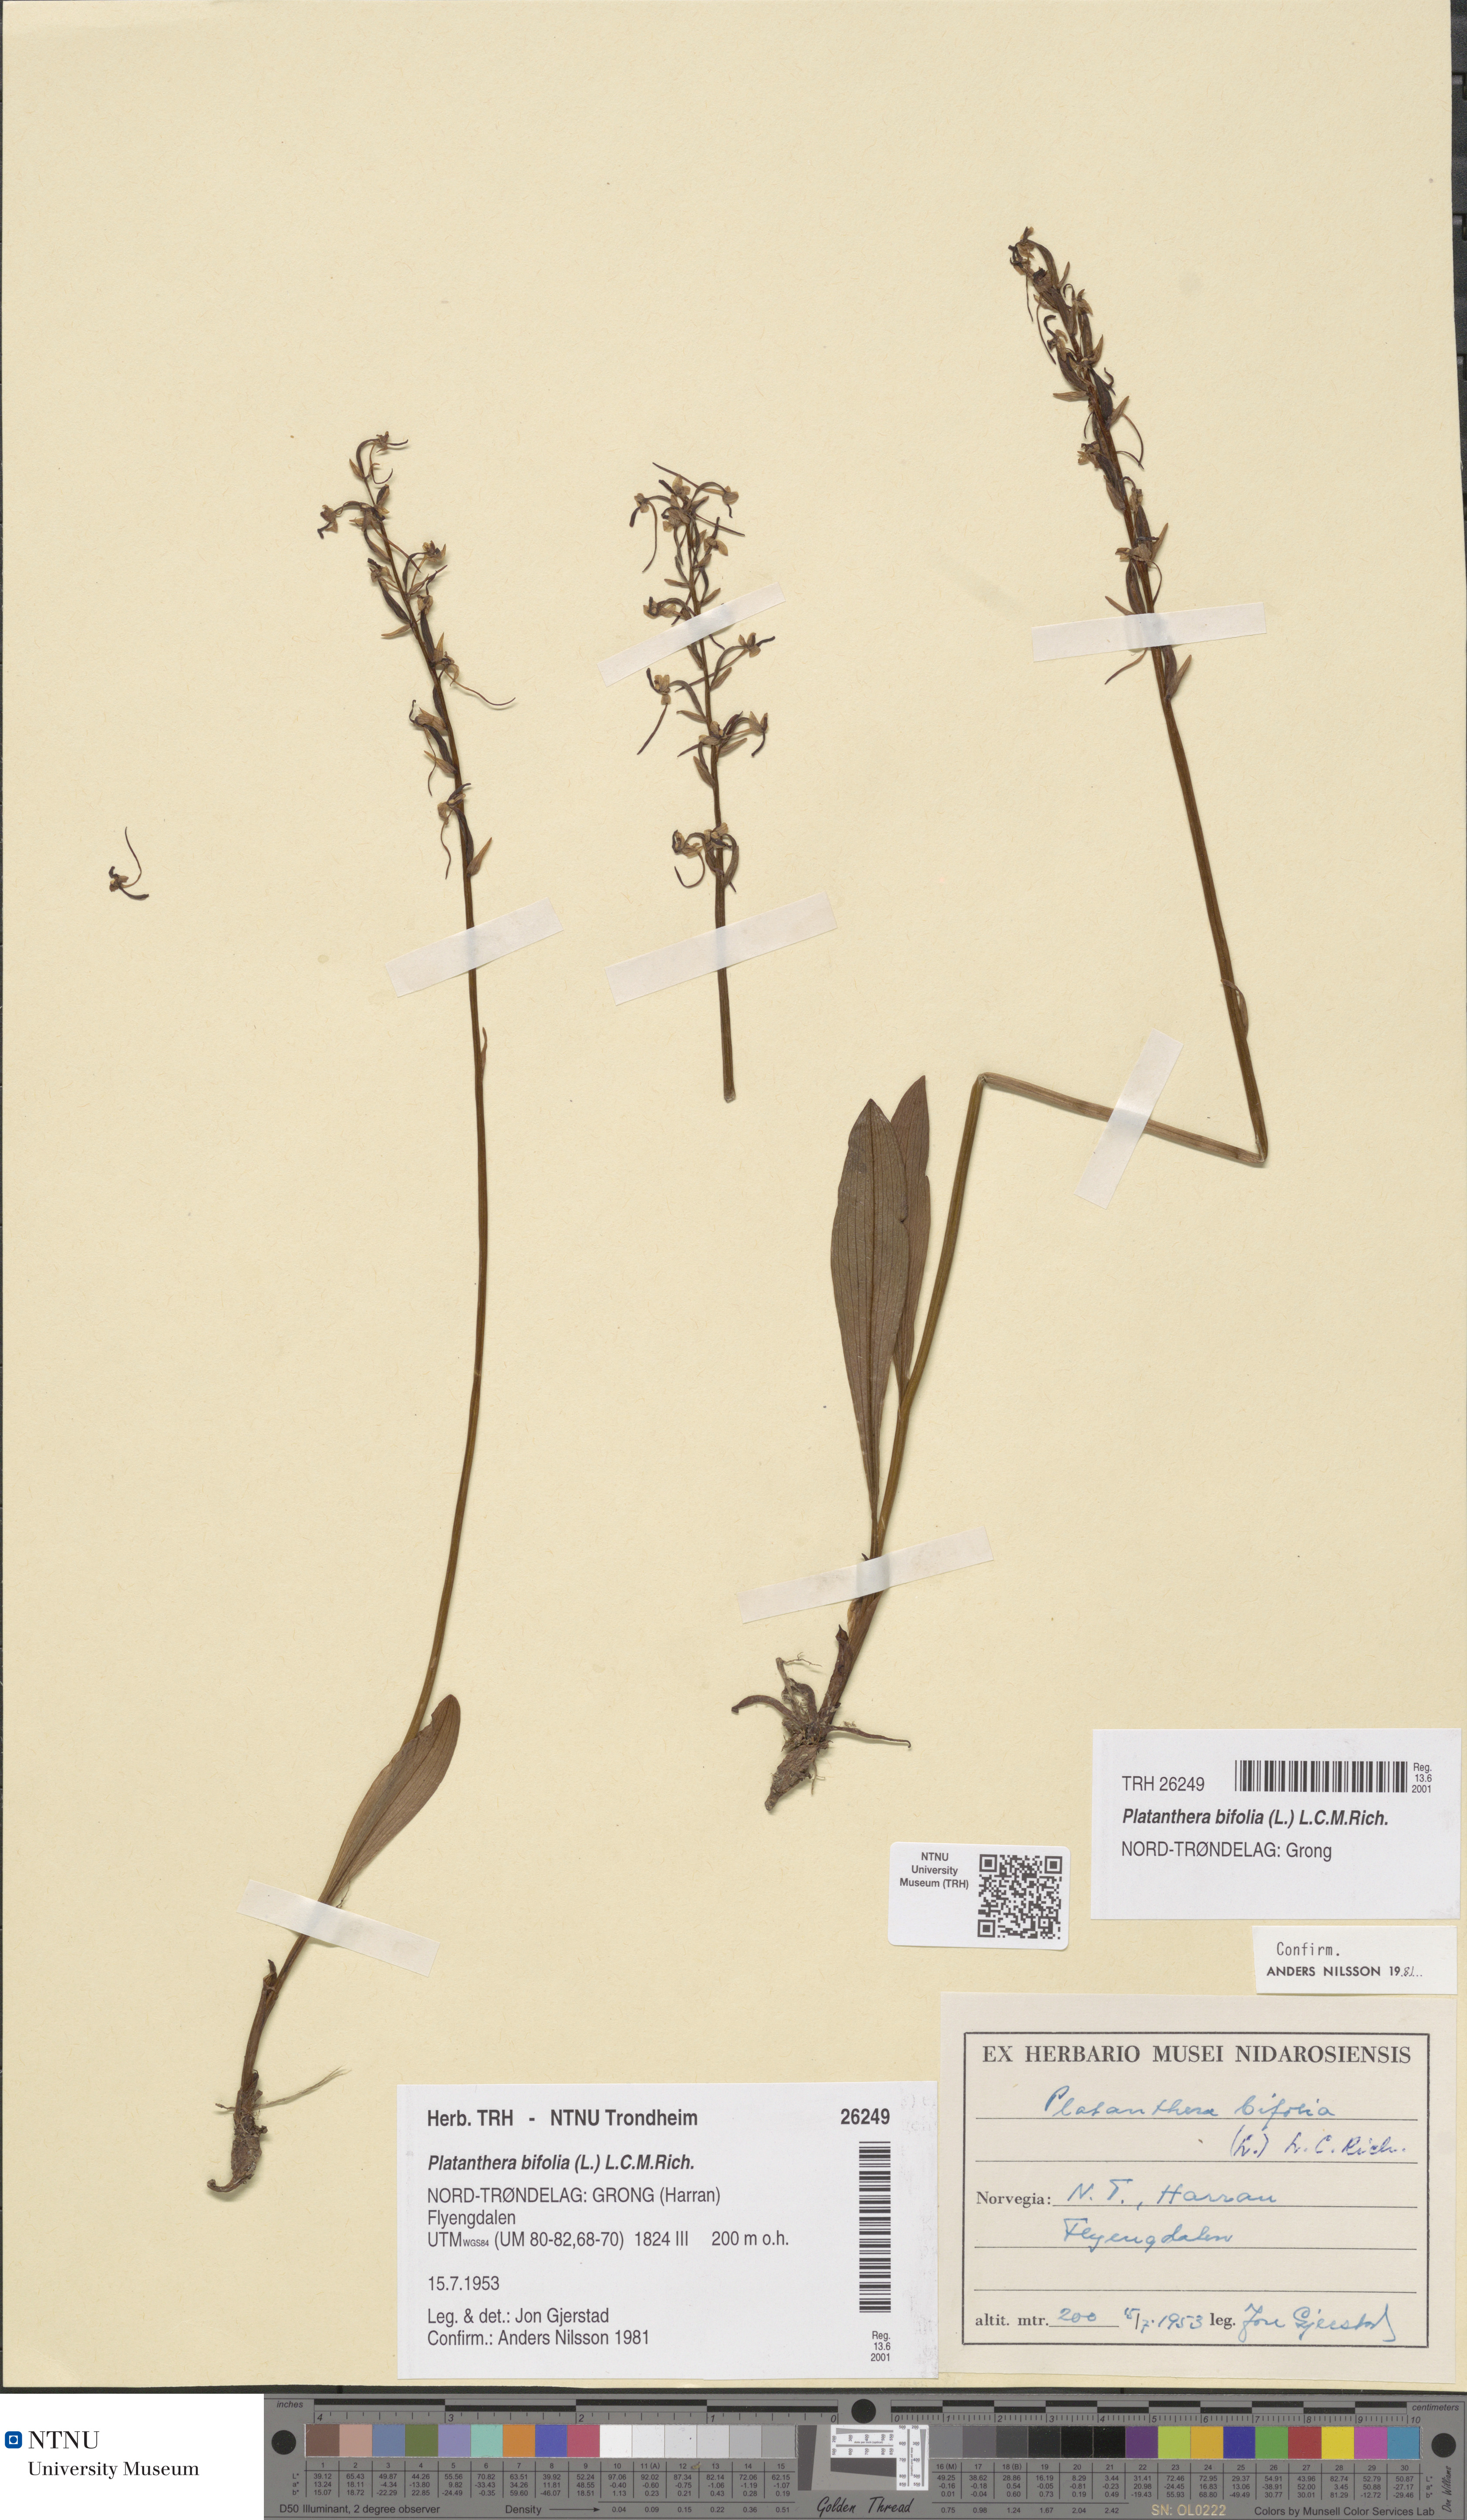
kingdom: Plantae
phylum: Tracheophyta
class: Liliopsida
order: Asparagales
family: Orchidaceae
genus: Platanthera
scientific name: Platanthera bifolia
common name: Lesser butterfly-orchid
